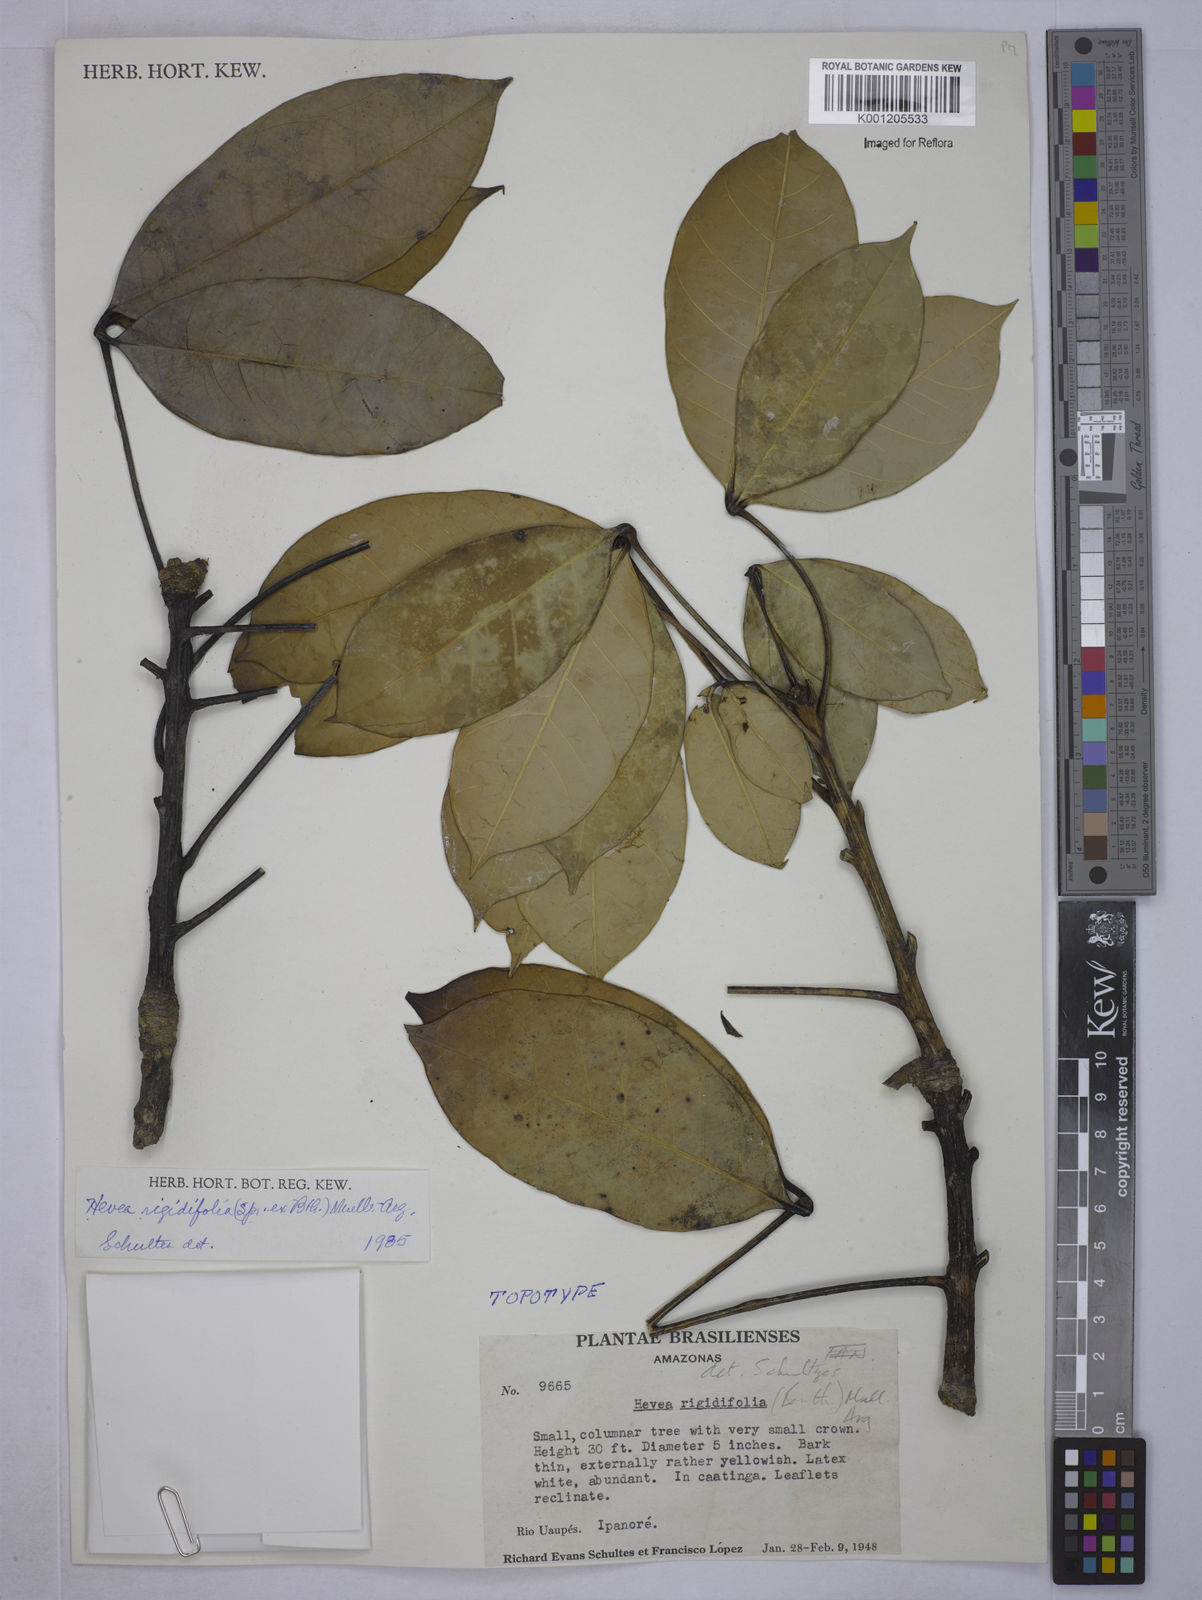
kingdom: Plantae
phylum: Tracheophyta
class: Magnoliopsida
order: Malpighiales
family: Euphorbiaceae
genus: Hevea
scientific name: Hevea
